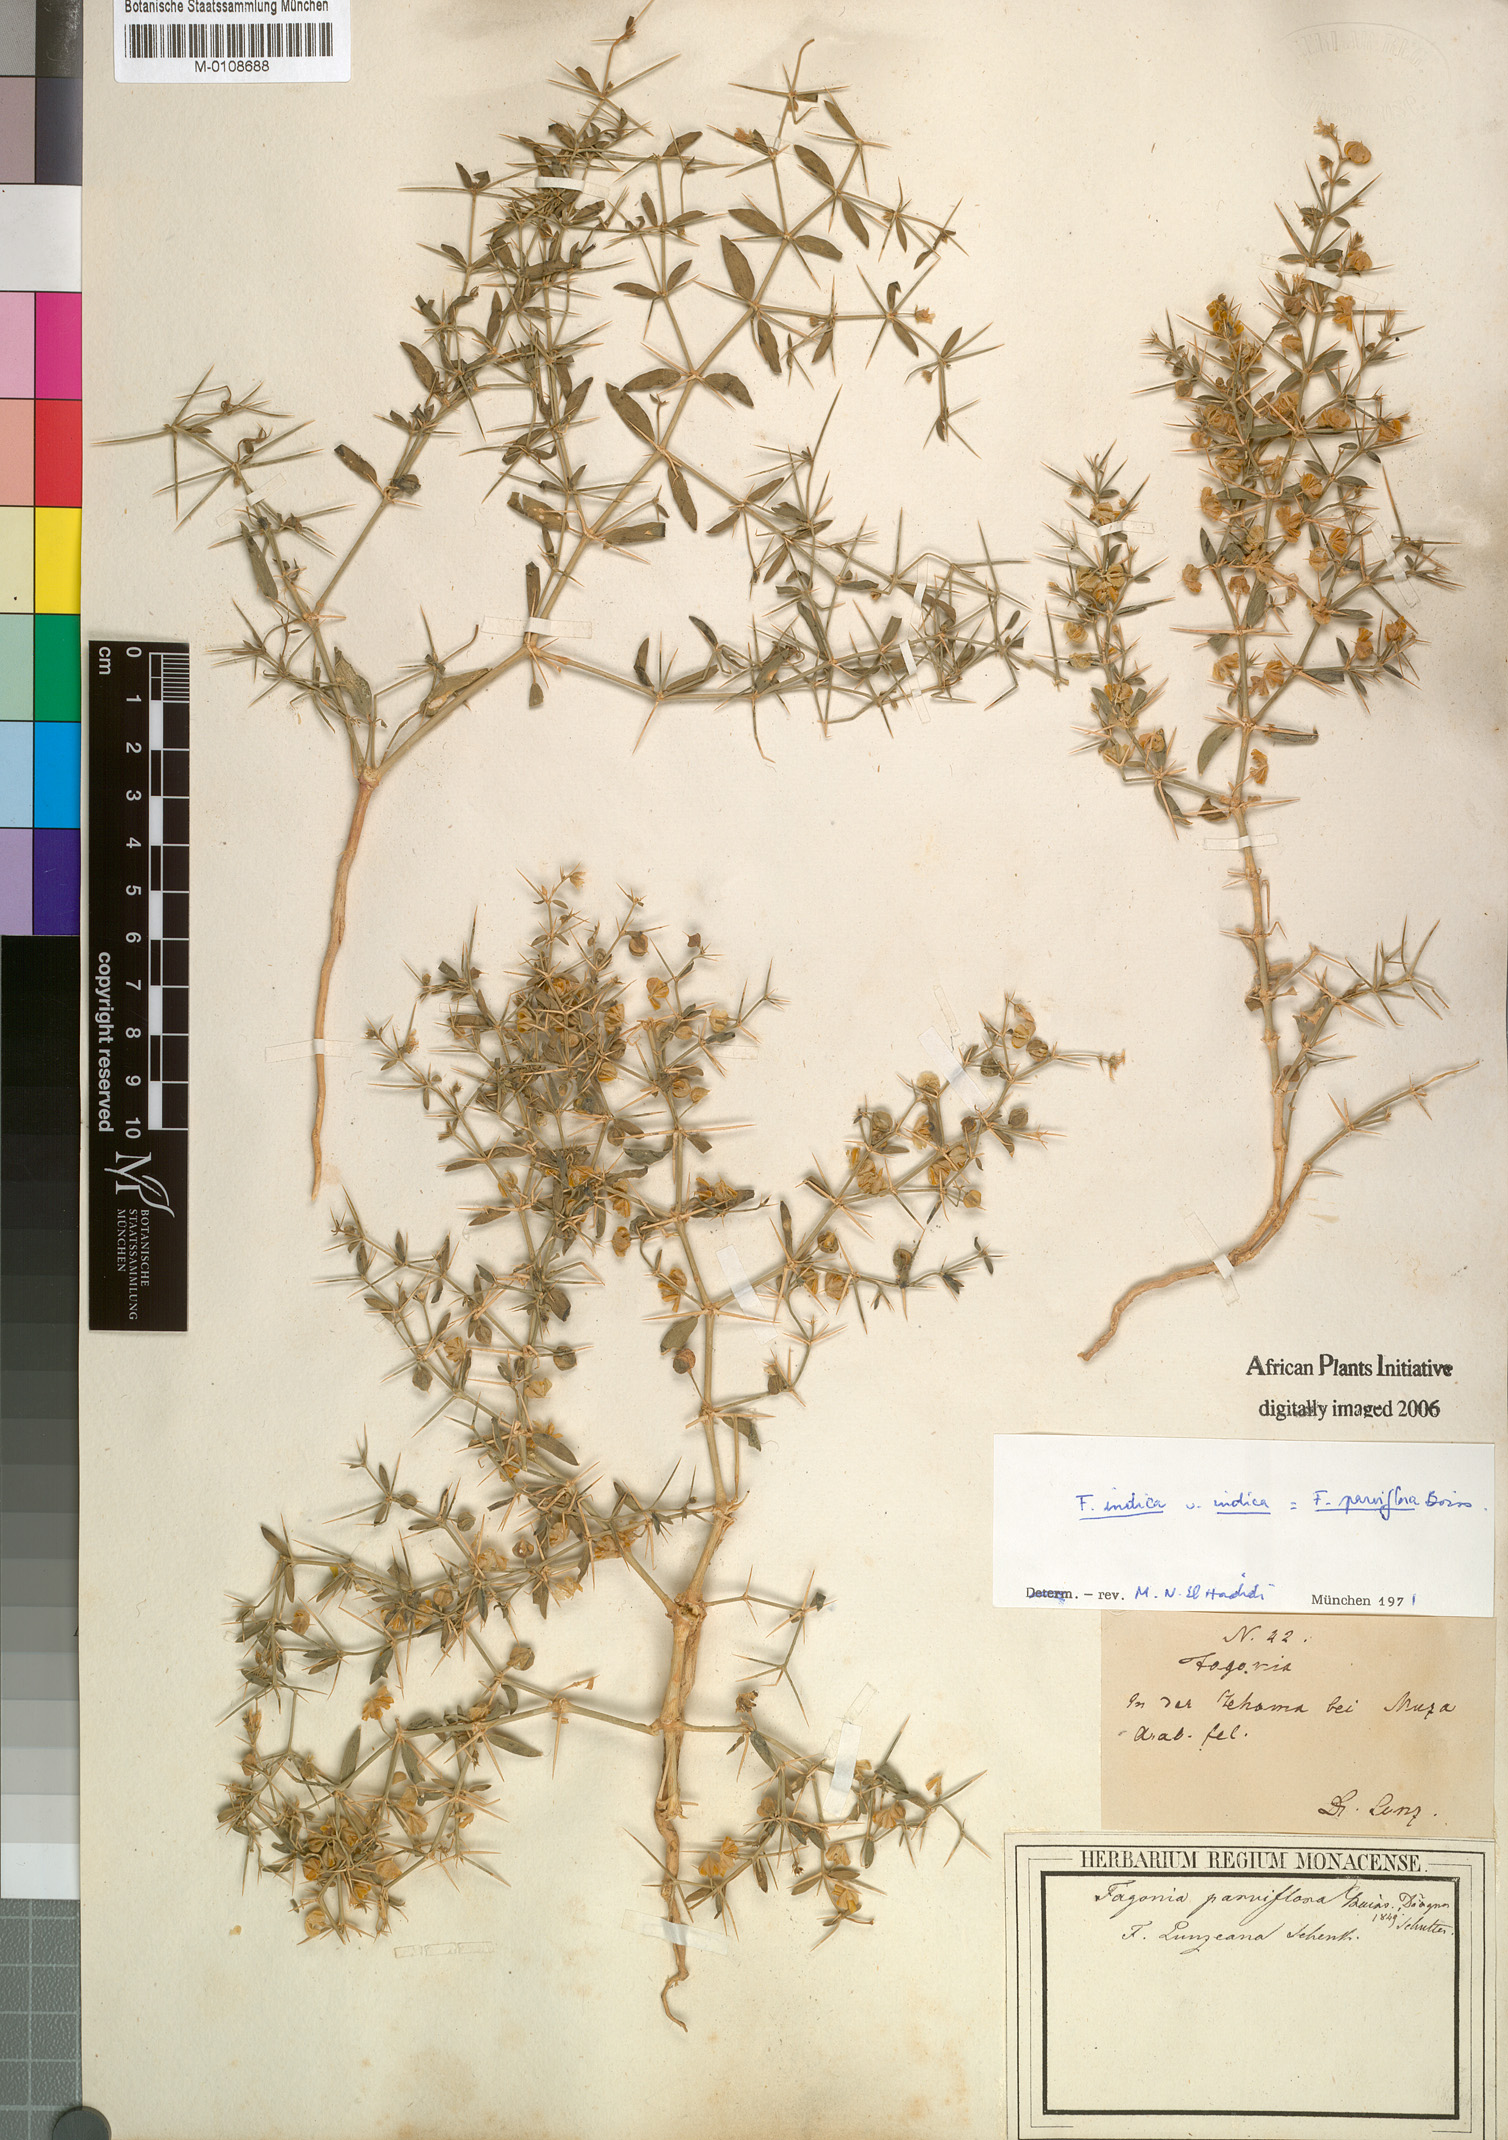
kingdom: Plantae
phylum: Tracheophyta
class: Magnoliopsida
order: Zygophyllales
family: Zygophyllaceae
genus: Fagonia
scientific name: Fagonia indica
